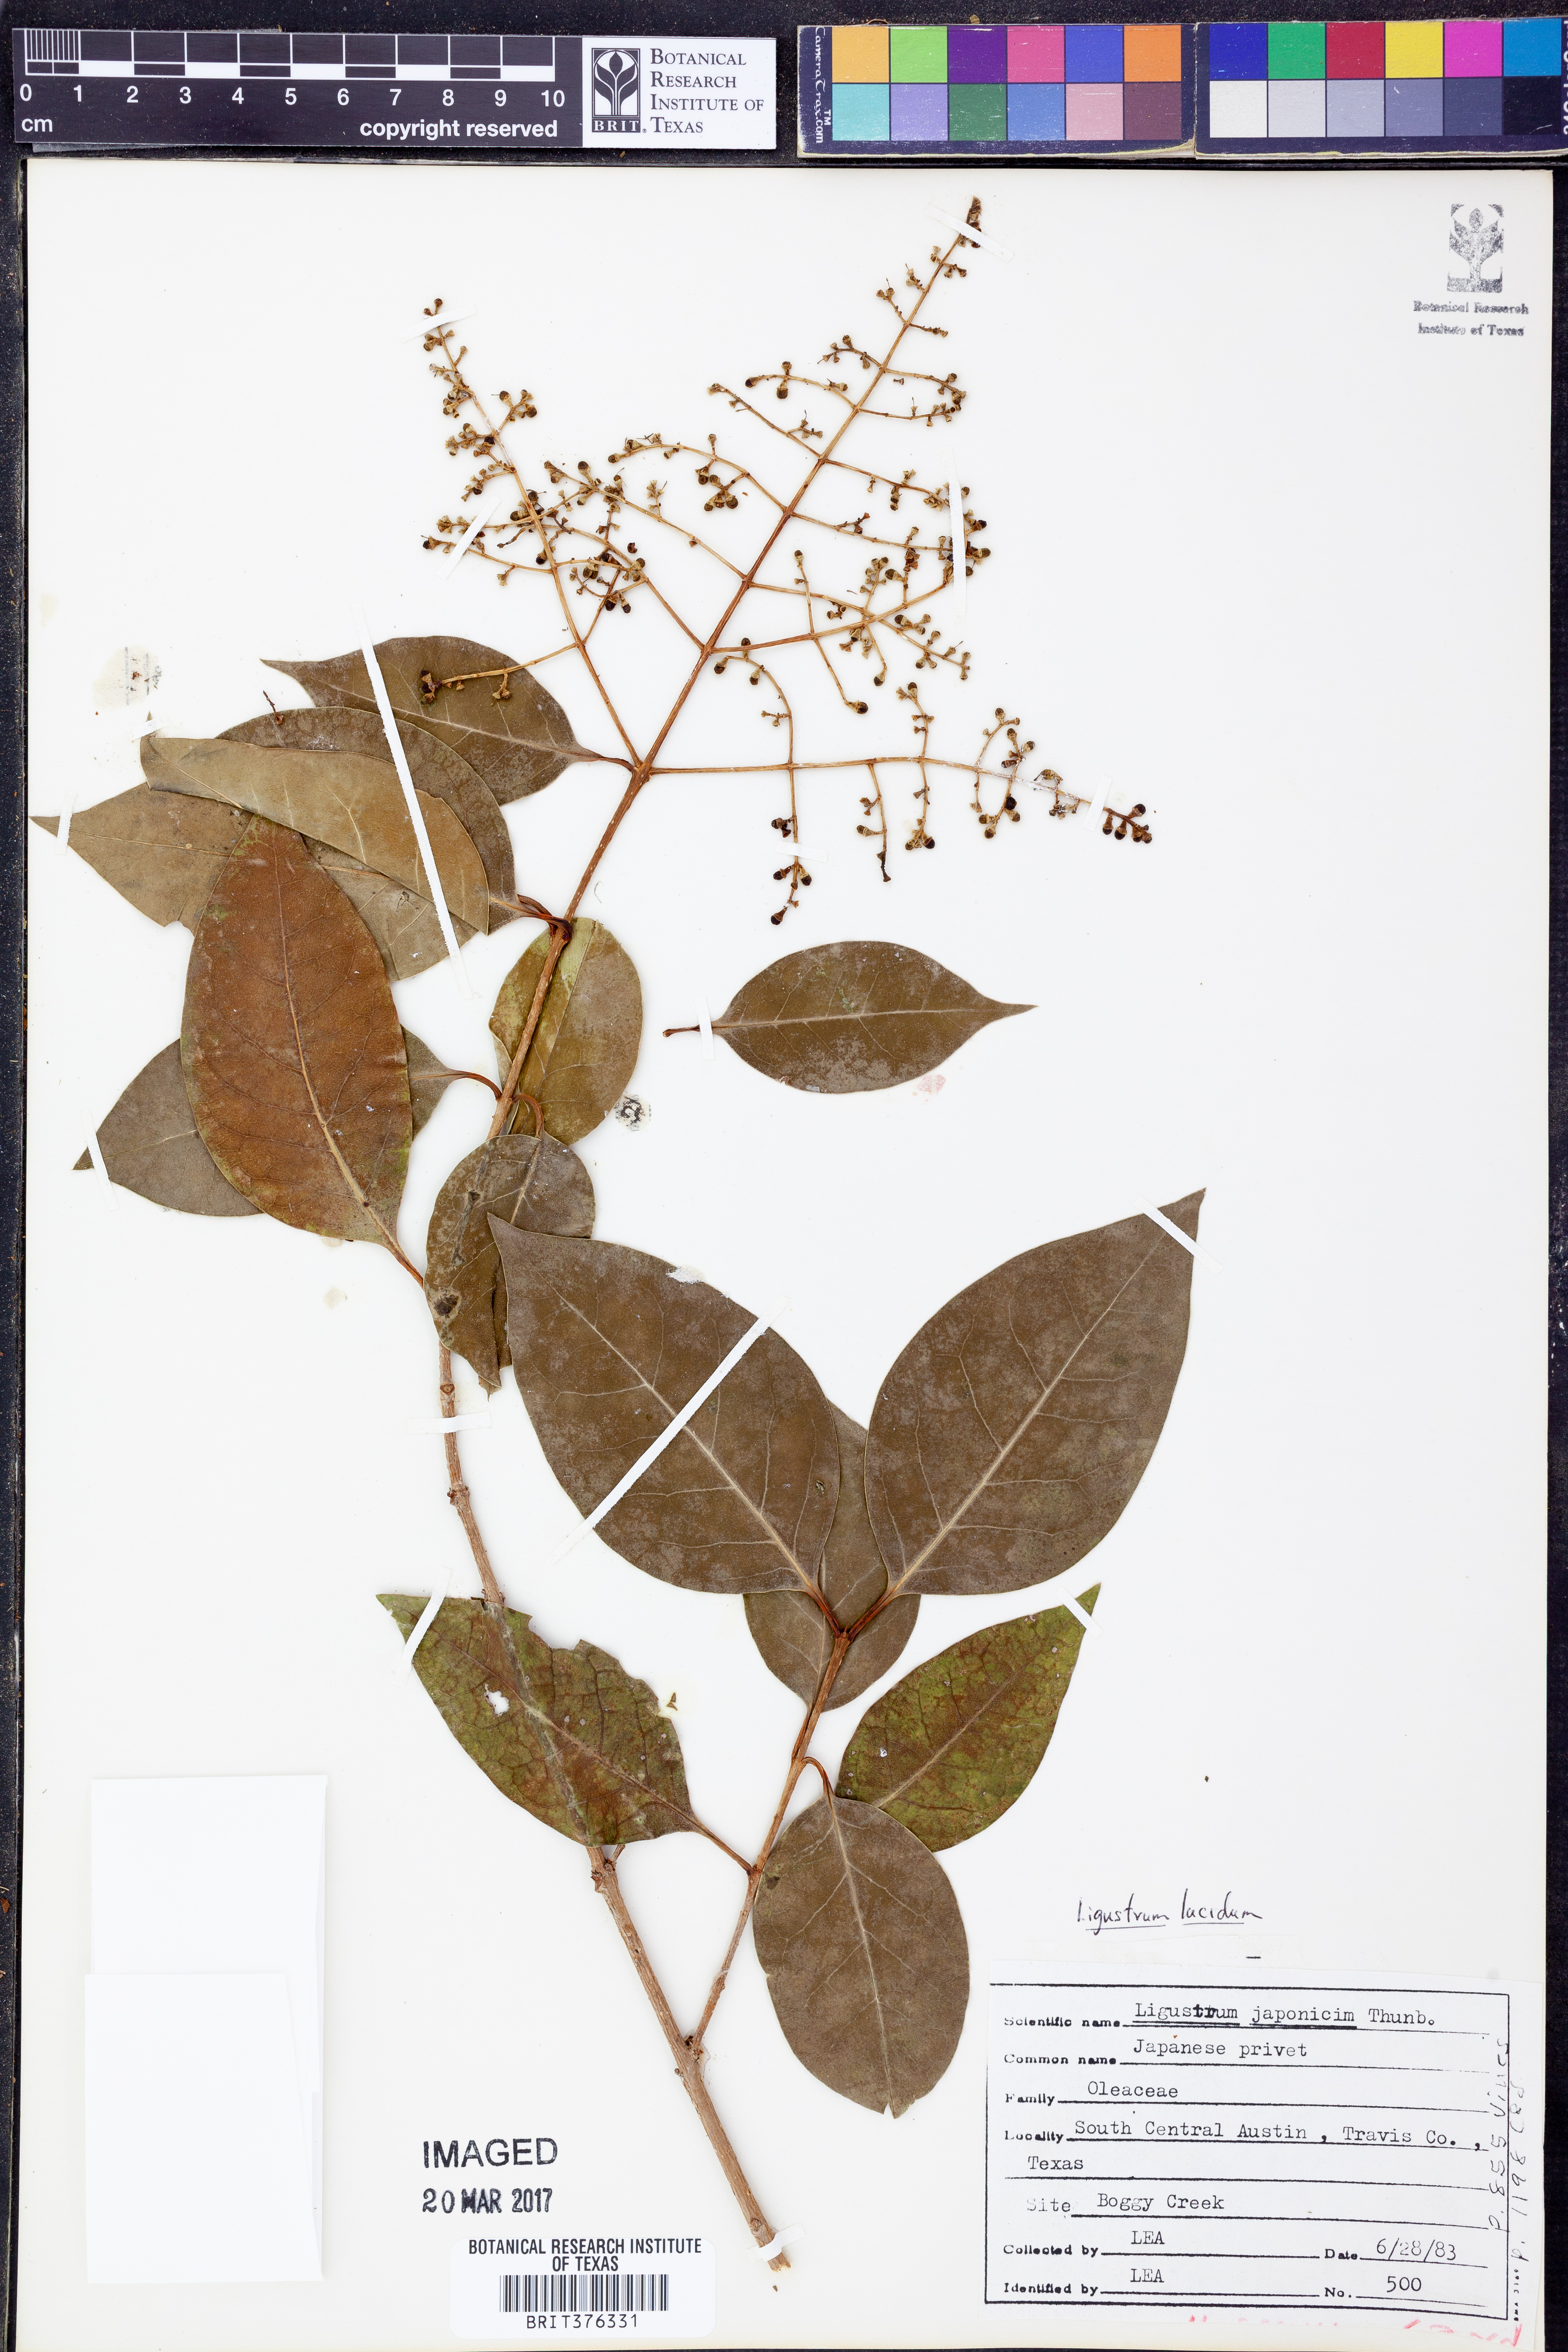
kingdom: Plantae
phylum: Tracheophyta
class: Magnoliopsida
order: Lamiales
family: Oleaceae
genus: Ligustrum
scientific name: Ligustrum lucidum
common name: Glossy privet
